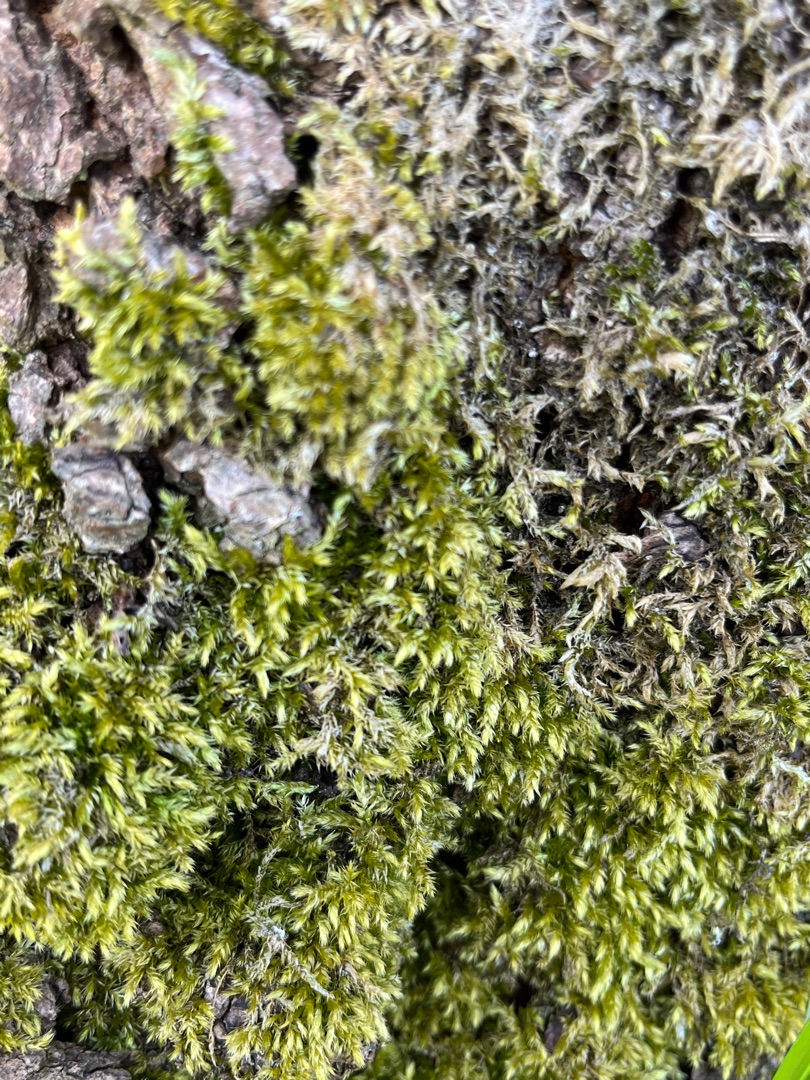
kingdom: Plantae
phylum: Bryophyta
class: Bryopsida
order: Hypnales
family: Brachytheciaceae
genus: Brachythecium
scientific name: Brachythecium rutabulum
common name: Almindelig kortkapsel
